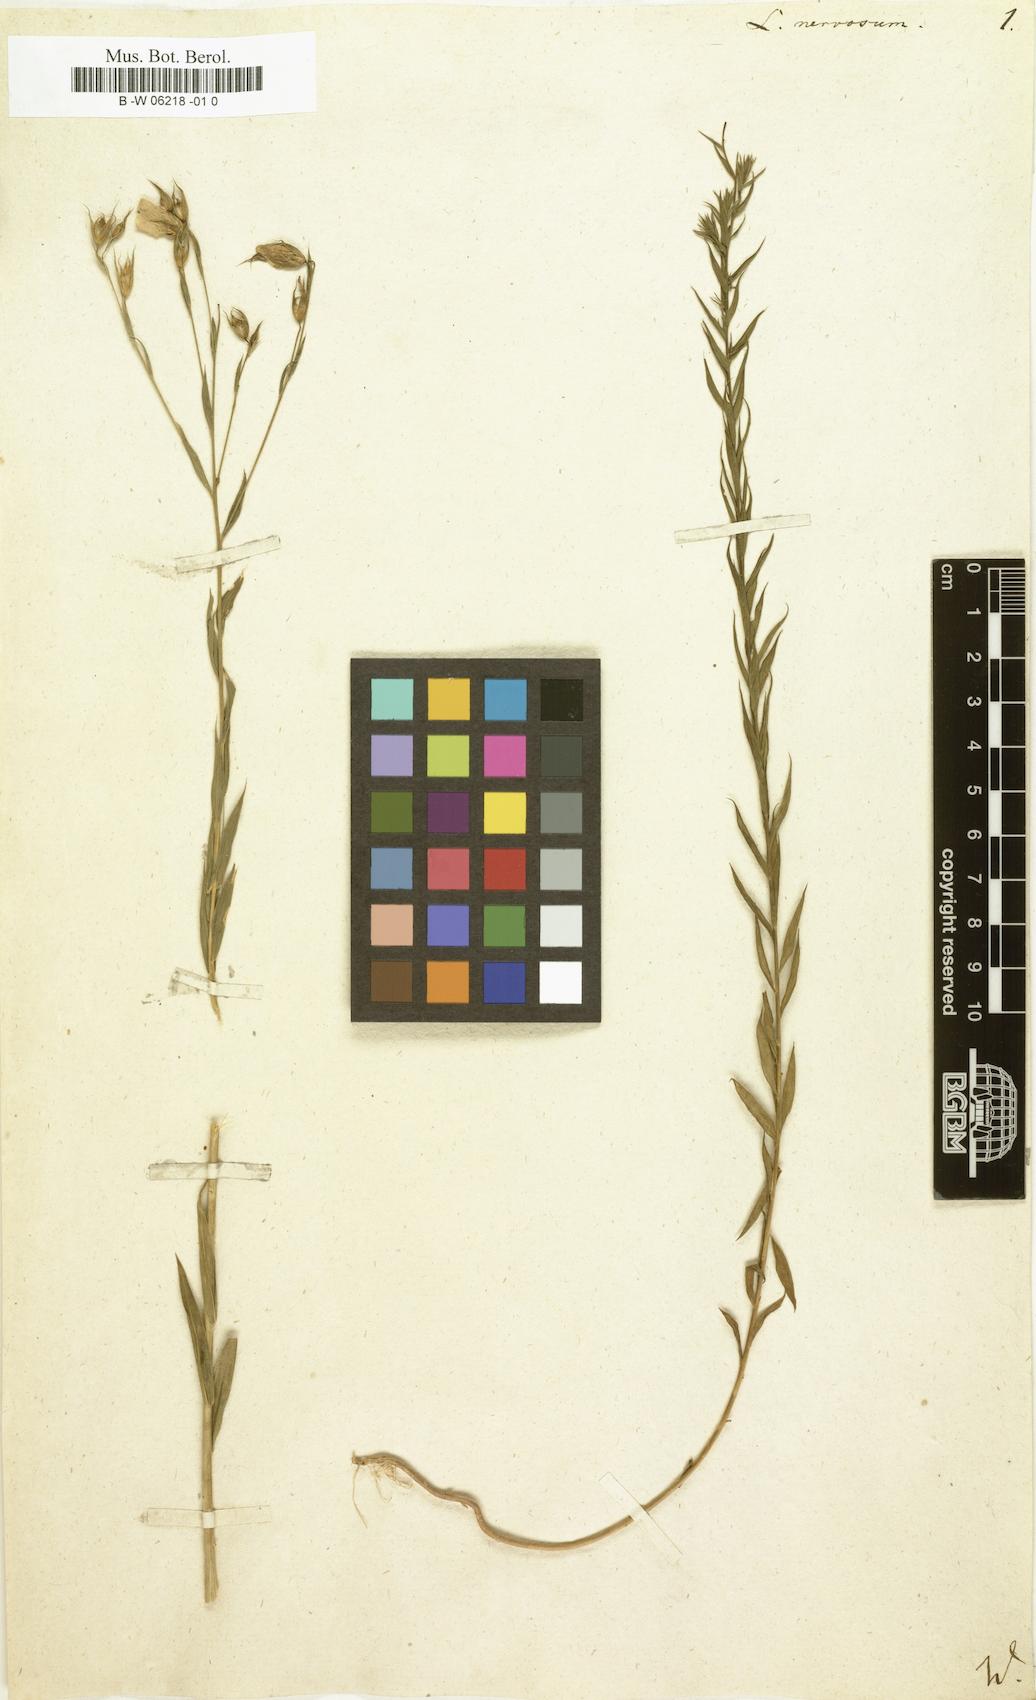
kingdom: Plantae
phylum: Tracheophyta
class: Magnoliopsida
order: Malpighiales
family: Linaceae
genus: Linum
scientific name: Linum nervosum
